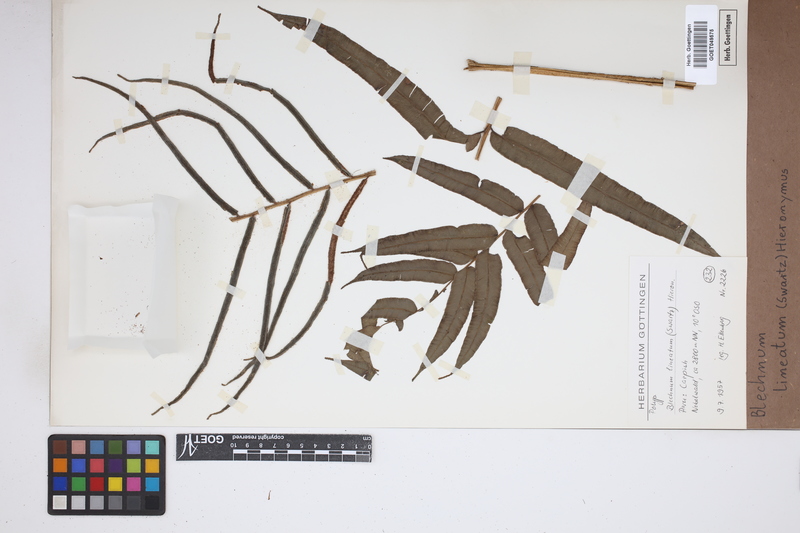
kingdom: Plantae
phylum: Tracheophyta
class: Polypodiopsida
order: Polypodiales
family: Blechnaceae
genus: Parablechnum
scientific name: Parablechnum lineatum
